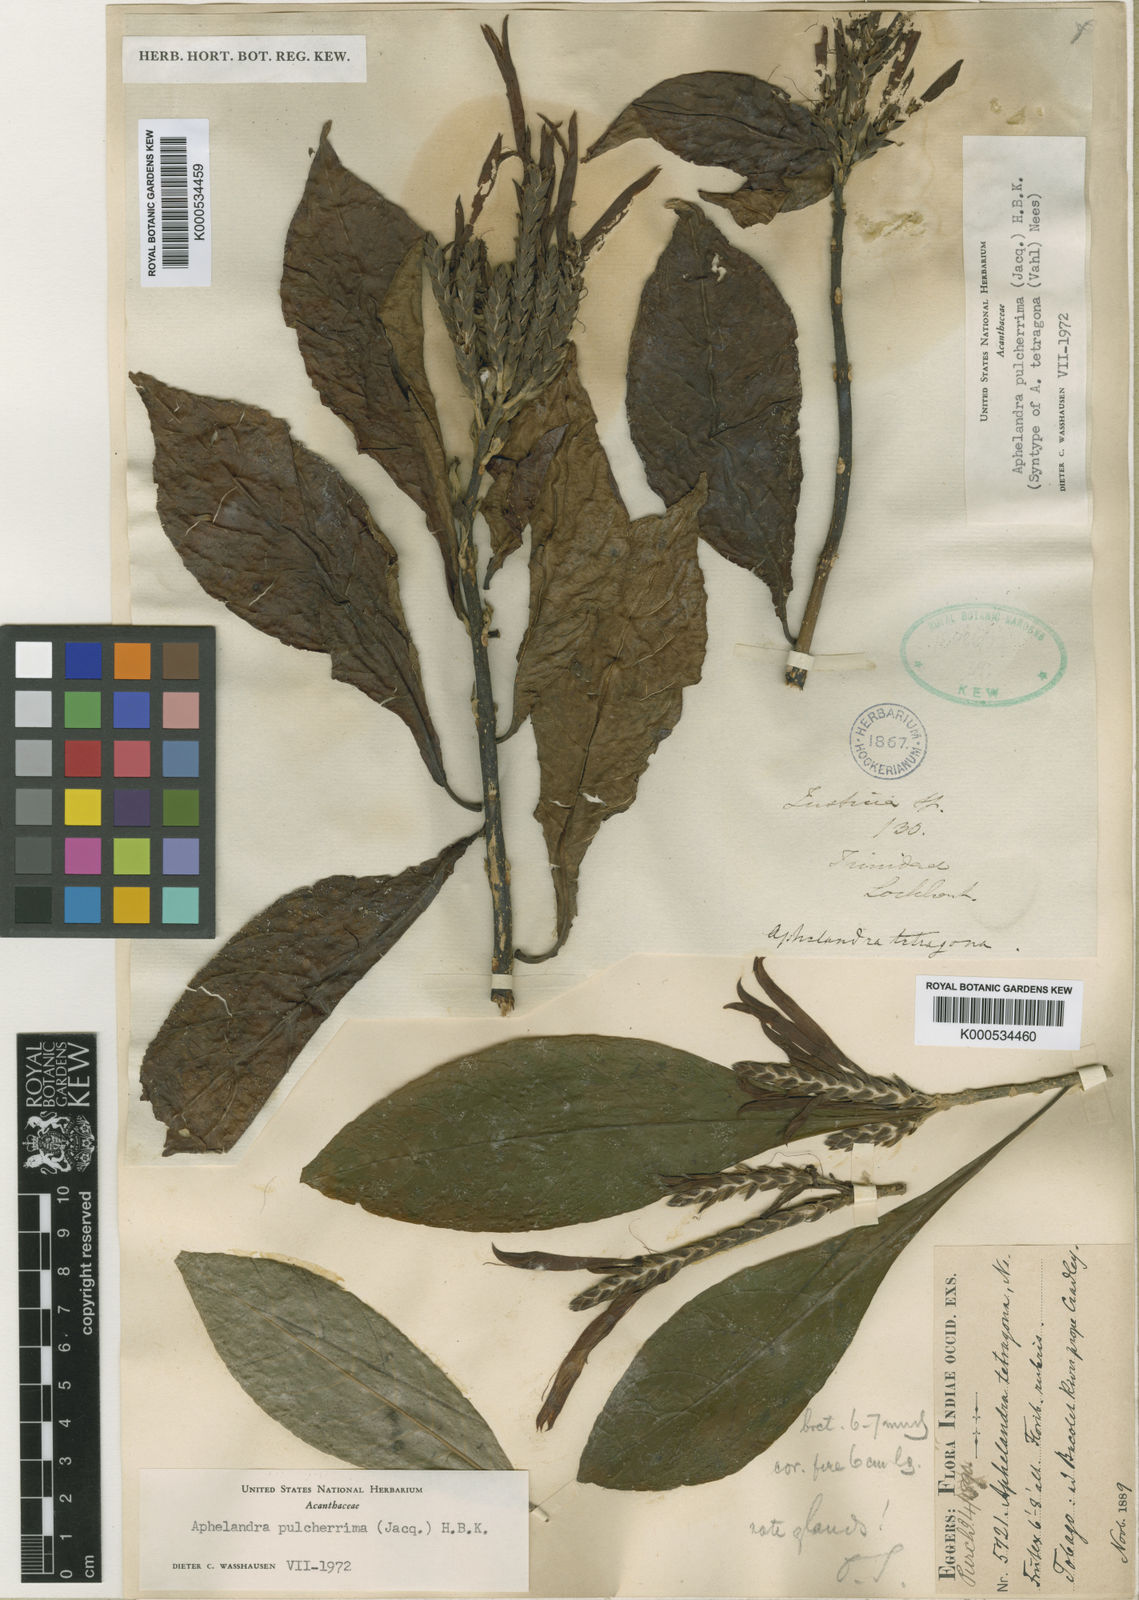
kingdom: Plantae
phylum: Tracheophyta
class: Magnoliopsida
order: Lamiales
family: Acanthaceae
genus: Aphelandra
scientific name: Aphelandra pulcherrima
